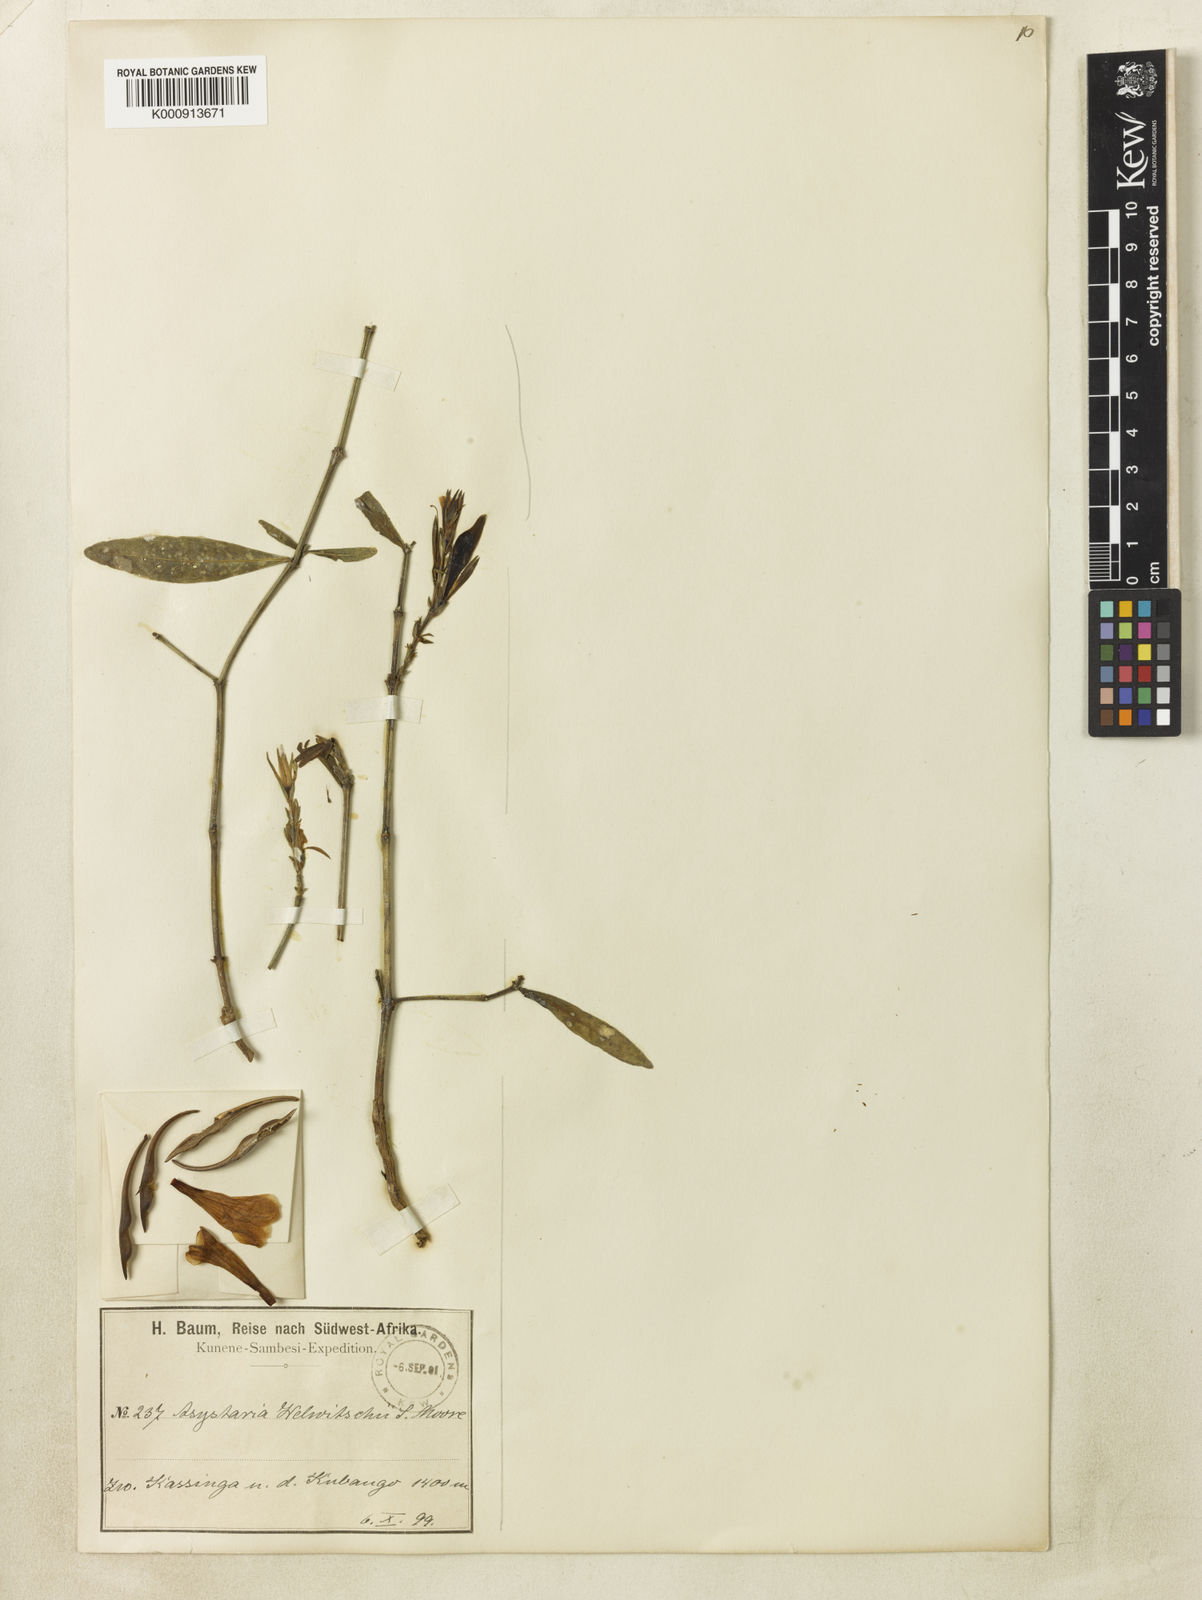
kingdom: Plantae
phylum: Tracheophyta
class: Magnoliopsida
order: Lamiales
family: Acanthaceae
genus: Asystasia
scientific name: Asystasia welwitschii
